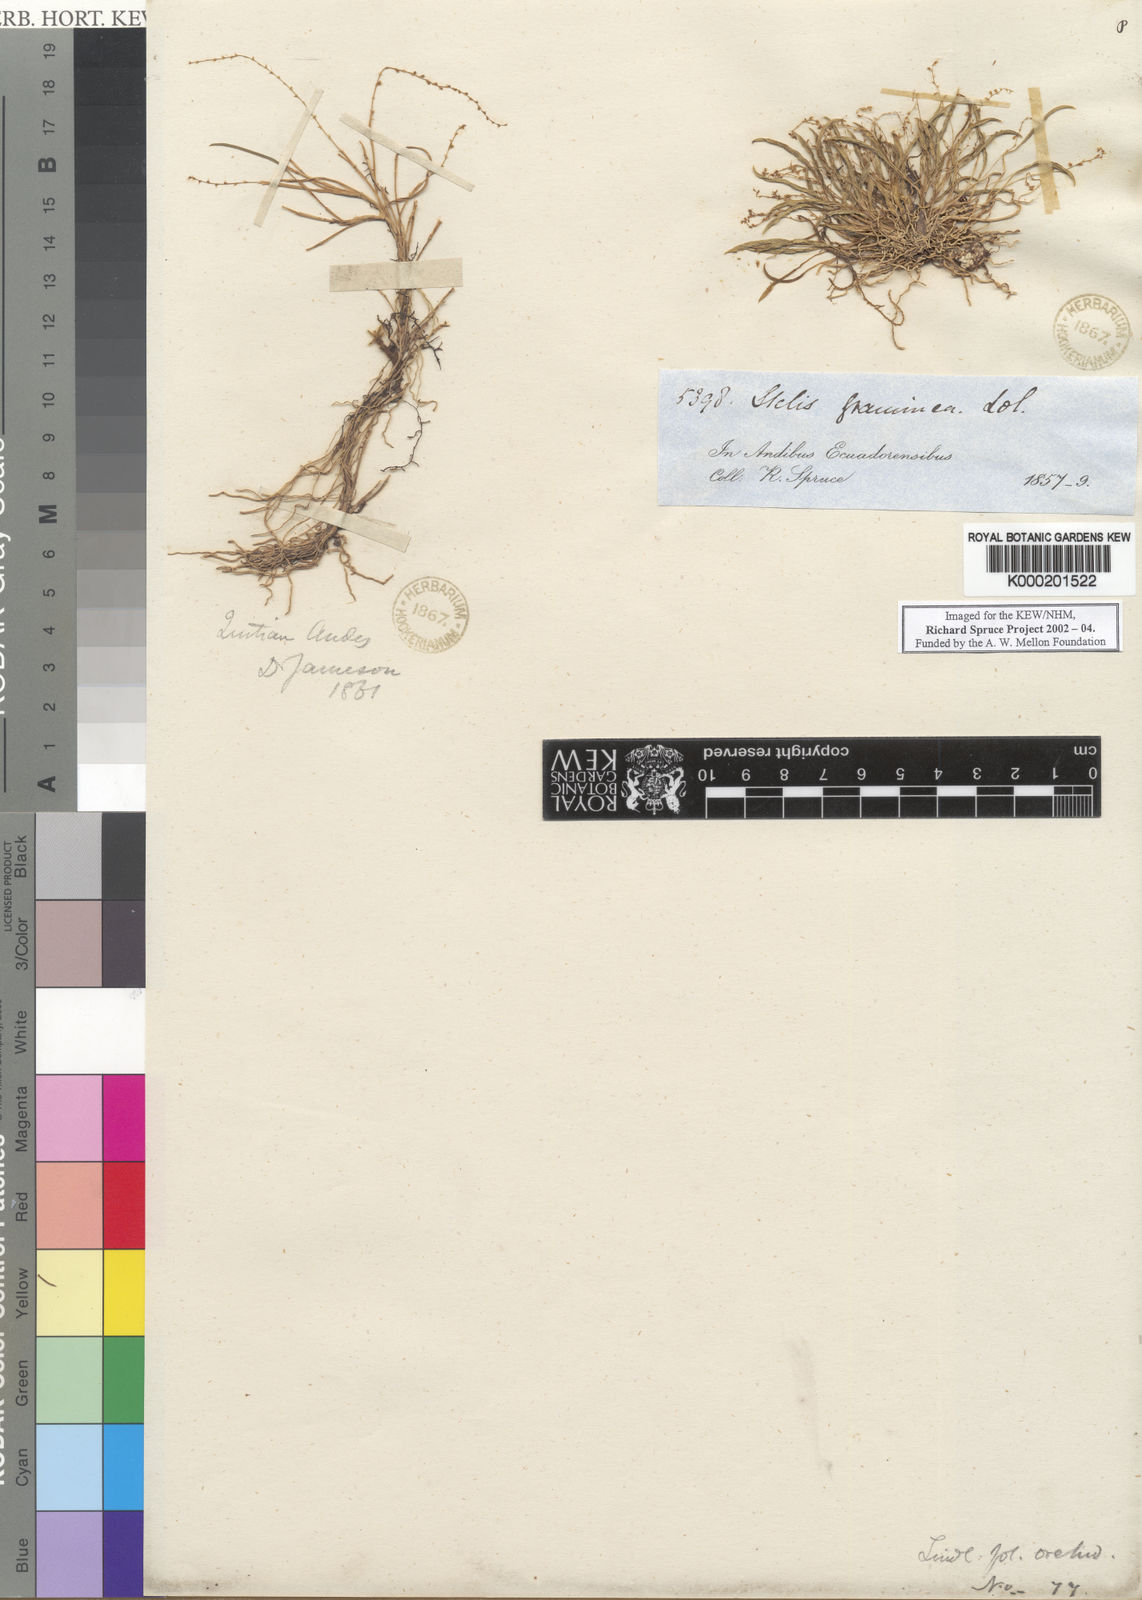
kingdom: Plantae
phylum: Tracheophyta
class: Liliopsida
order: Asparagales
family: Orchidaceae
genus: Stelis
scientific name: Stelis pusilla
